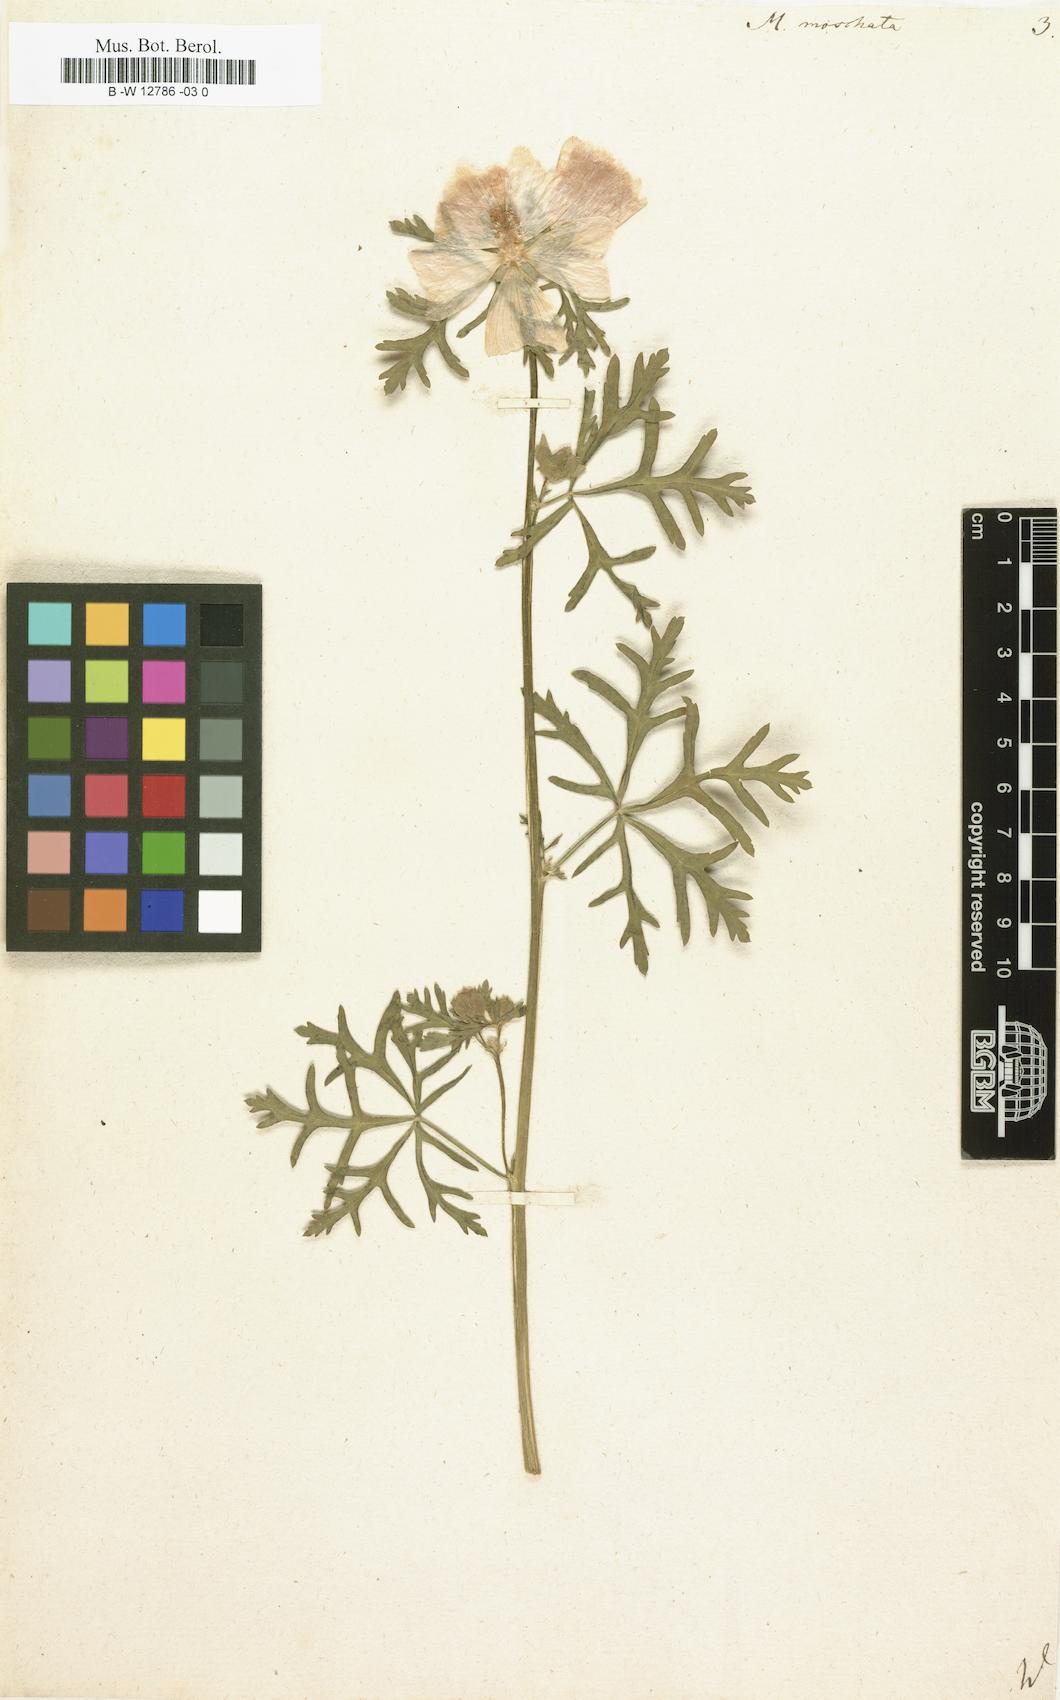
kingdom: Plantae
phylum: Tracheophyta
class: Magnoliopsida
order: Malvales
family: Malvaceae
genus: Malva
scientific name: Malva
